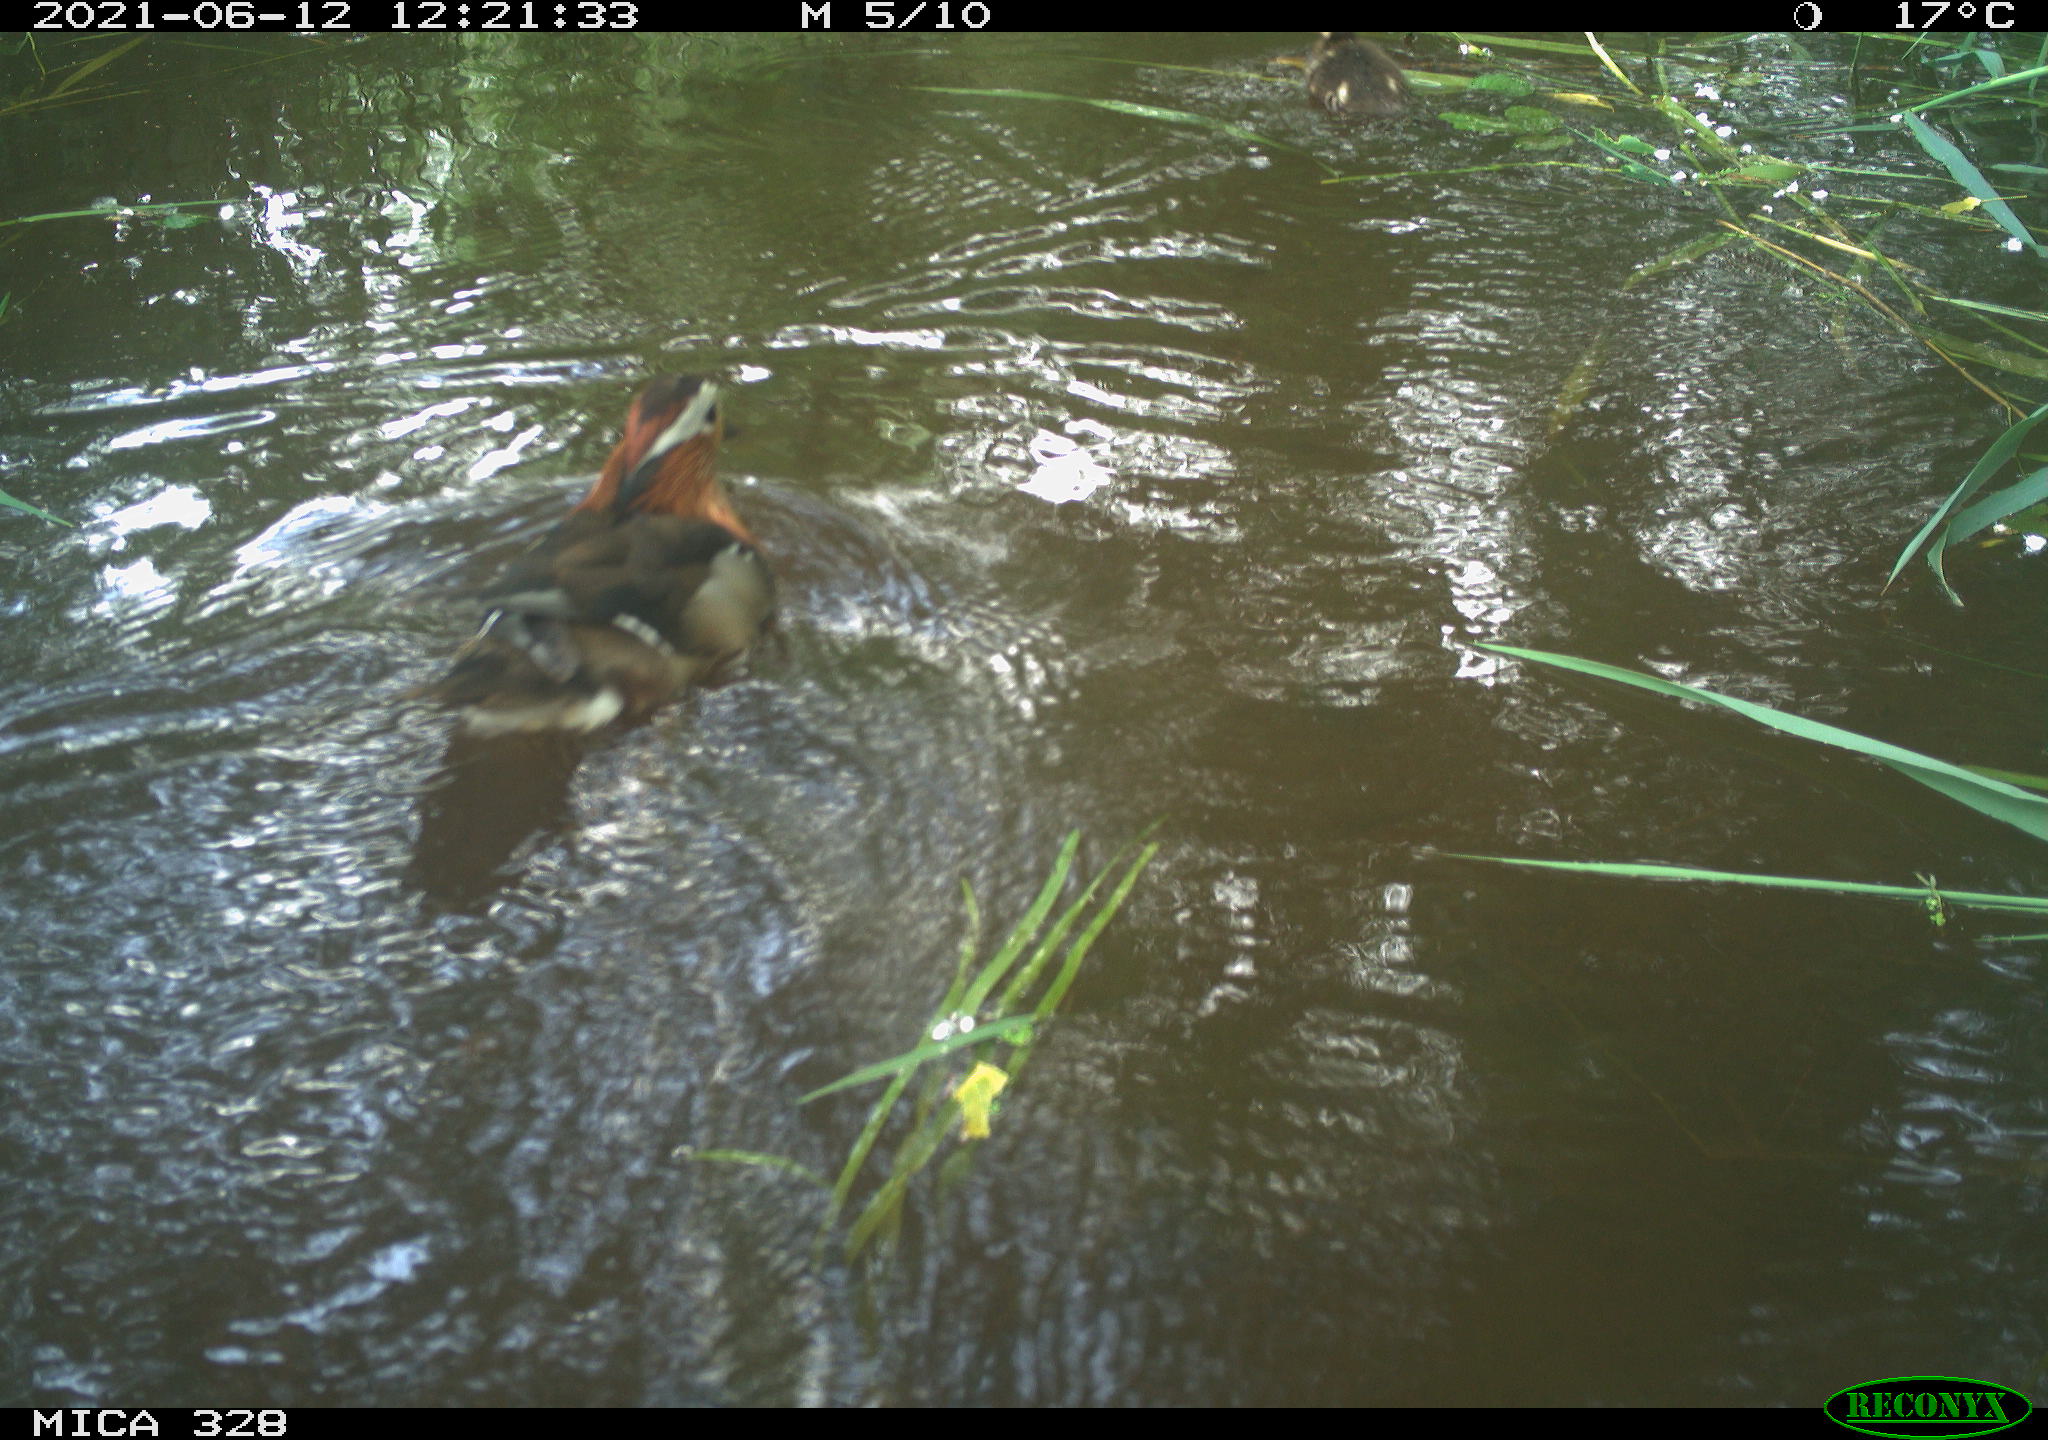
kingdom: Animalia
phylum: Chordata
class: Aves
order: Anseriformes
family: Anatidae
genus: Aix
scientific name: Aix galericulata
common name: Mandarin duck
